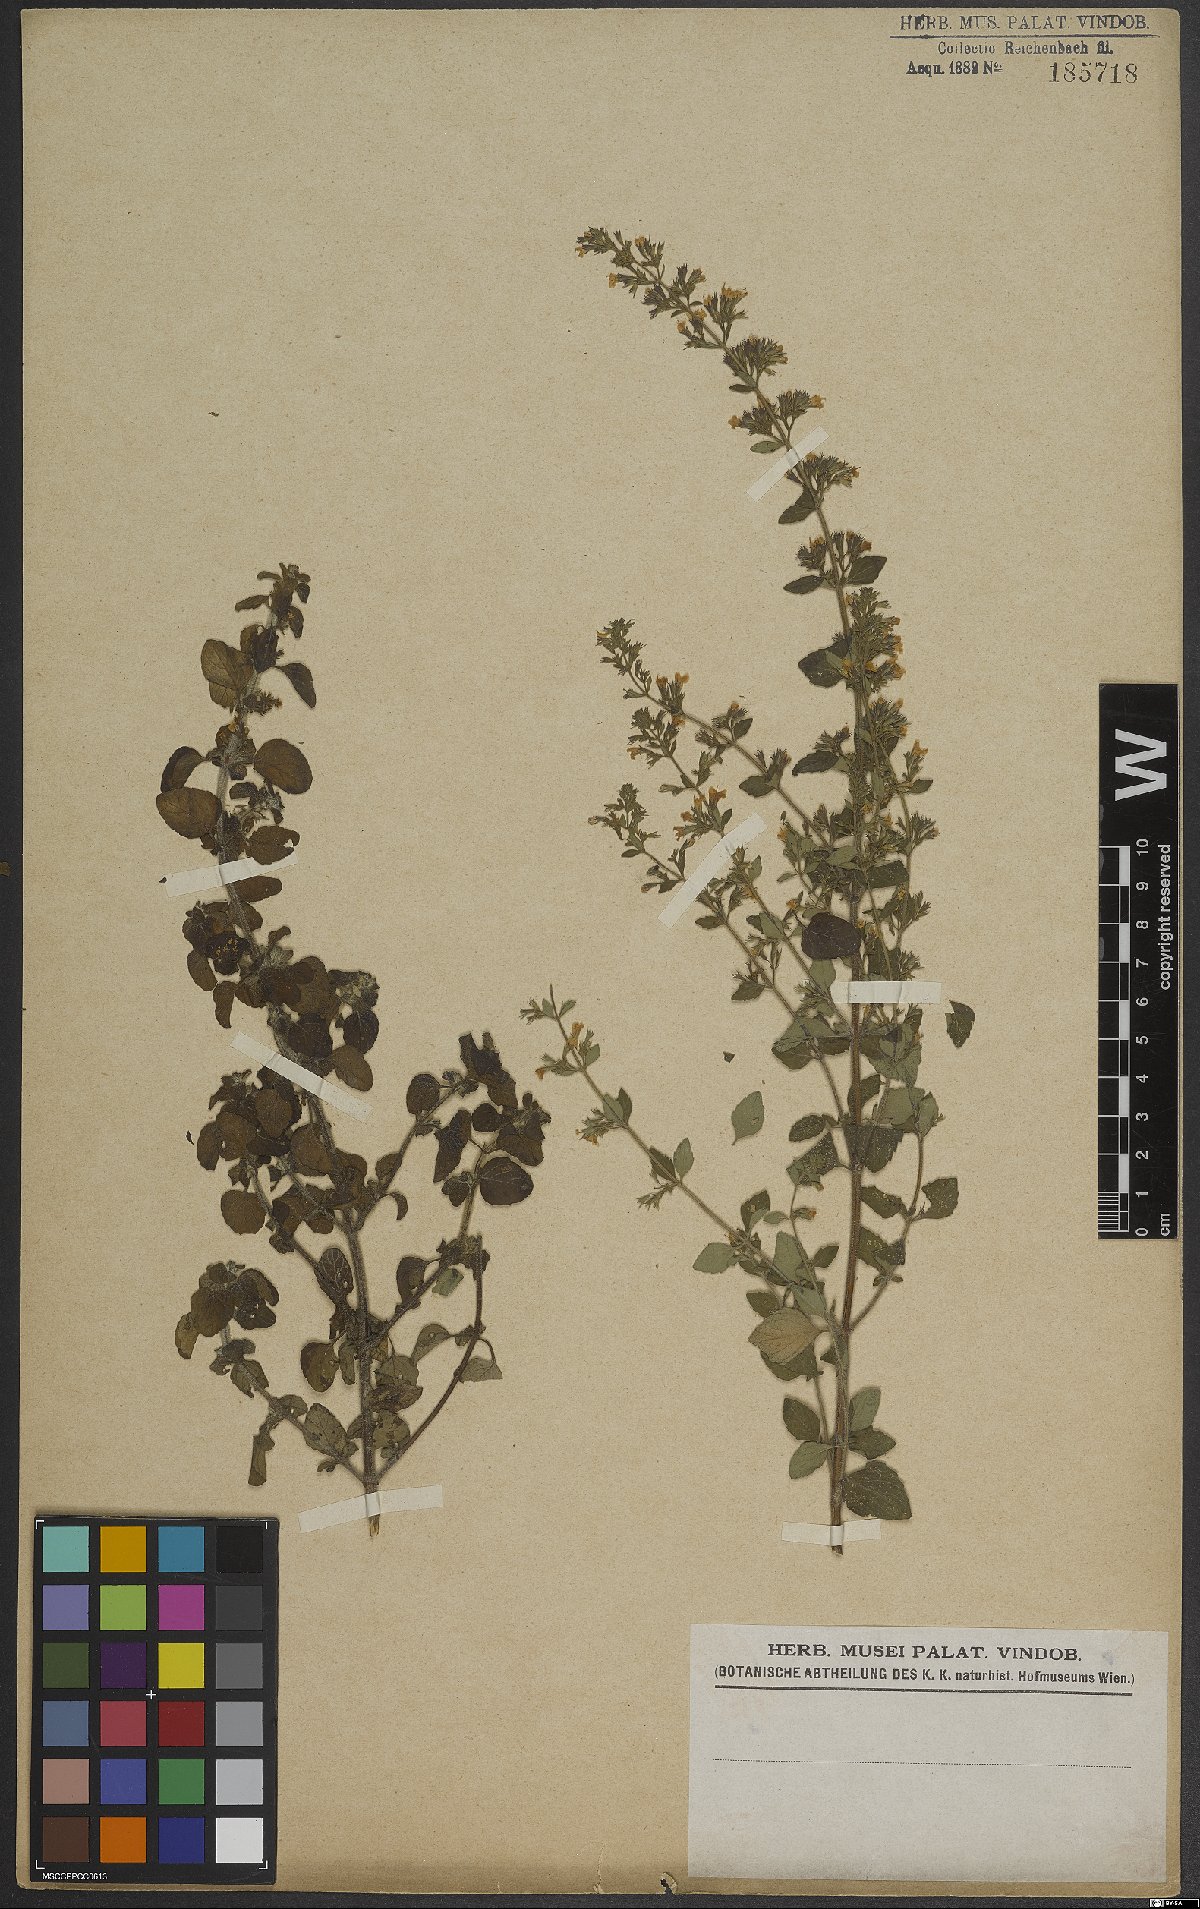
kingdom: Plantae
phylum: Tracheophyta
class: Magnoliopsida
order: Lamiales
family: Lamiaceae
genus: Calamintha
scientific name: Calamintha
